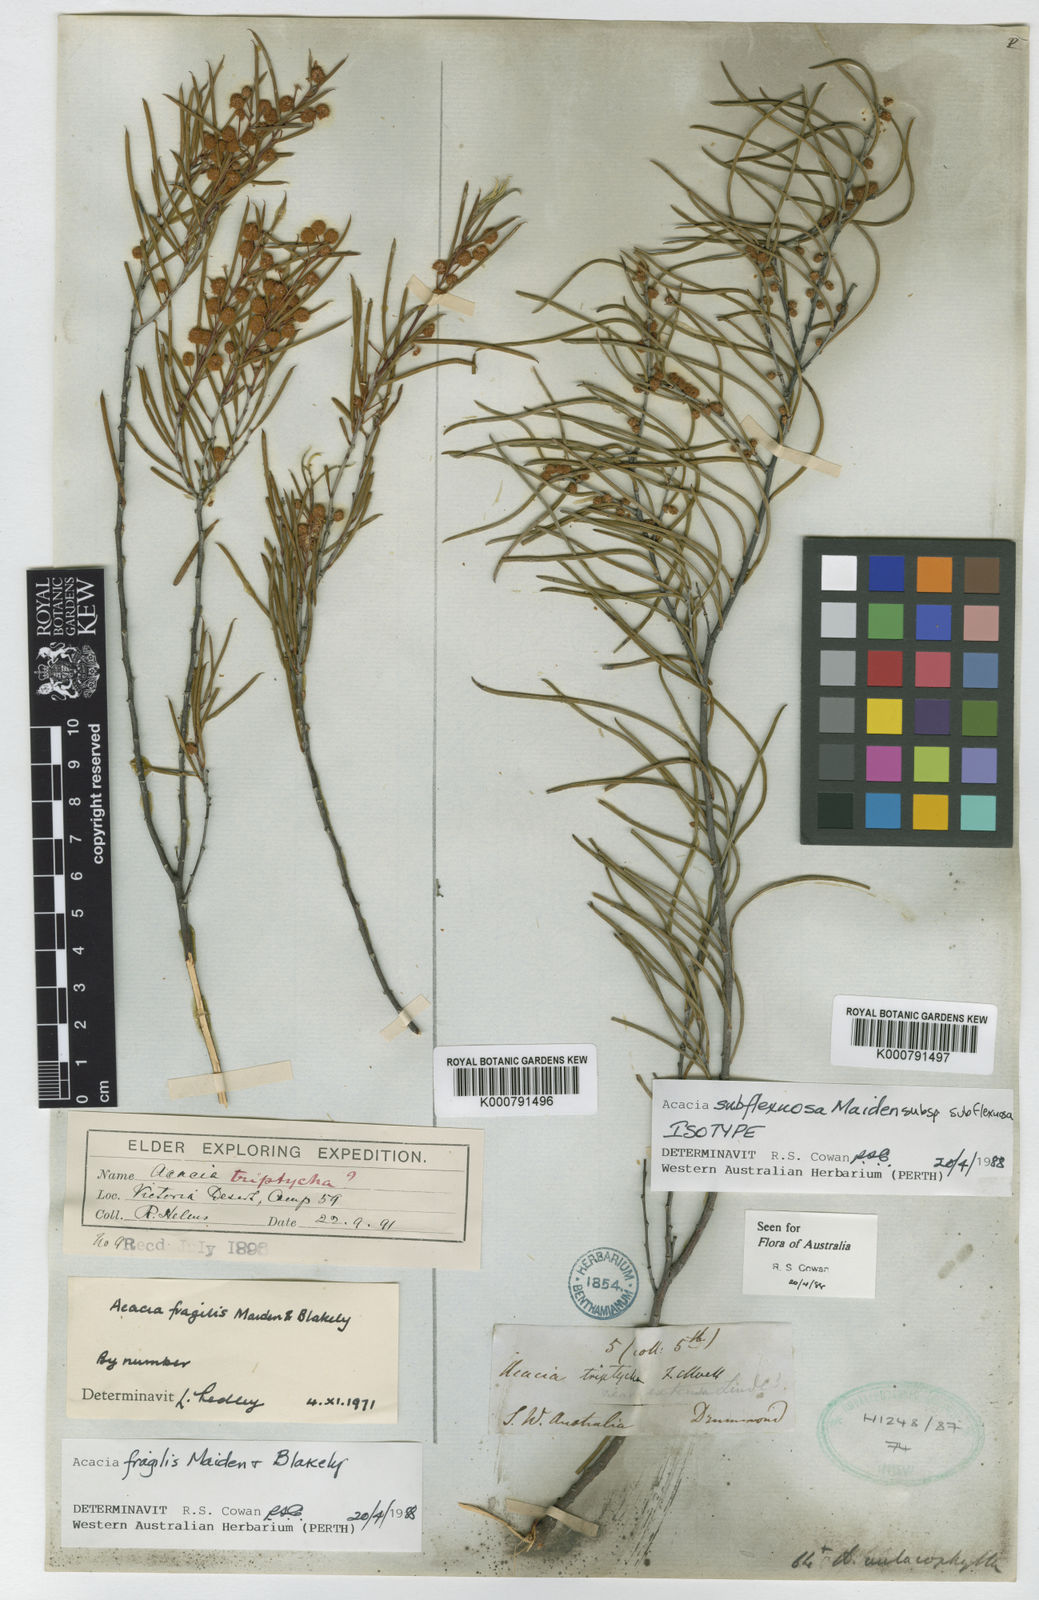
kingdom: Plantae
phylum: Tracheophyta
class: Magnoliopsida
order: Fabales
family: Fabaceae
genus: Acacia
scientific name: Acacia triptycha
